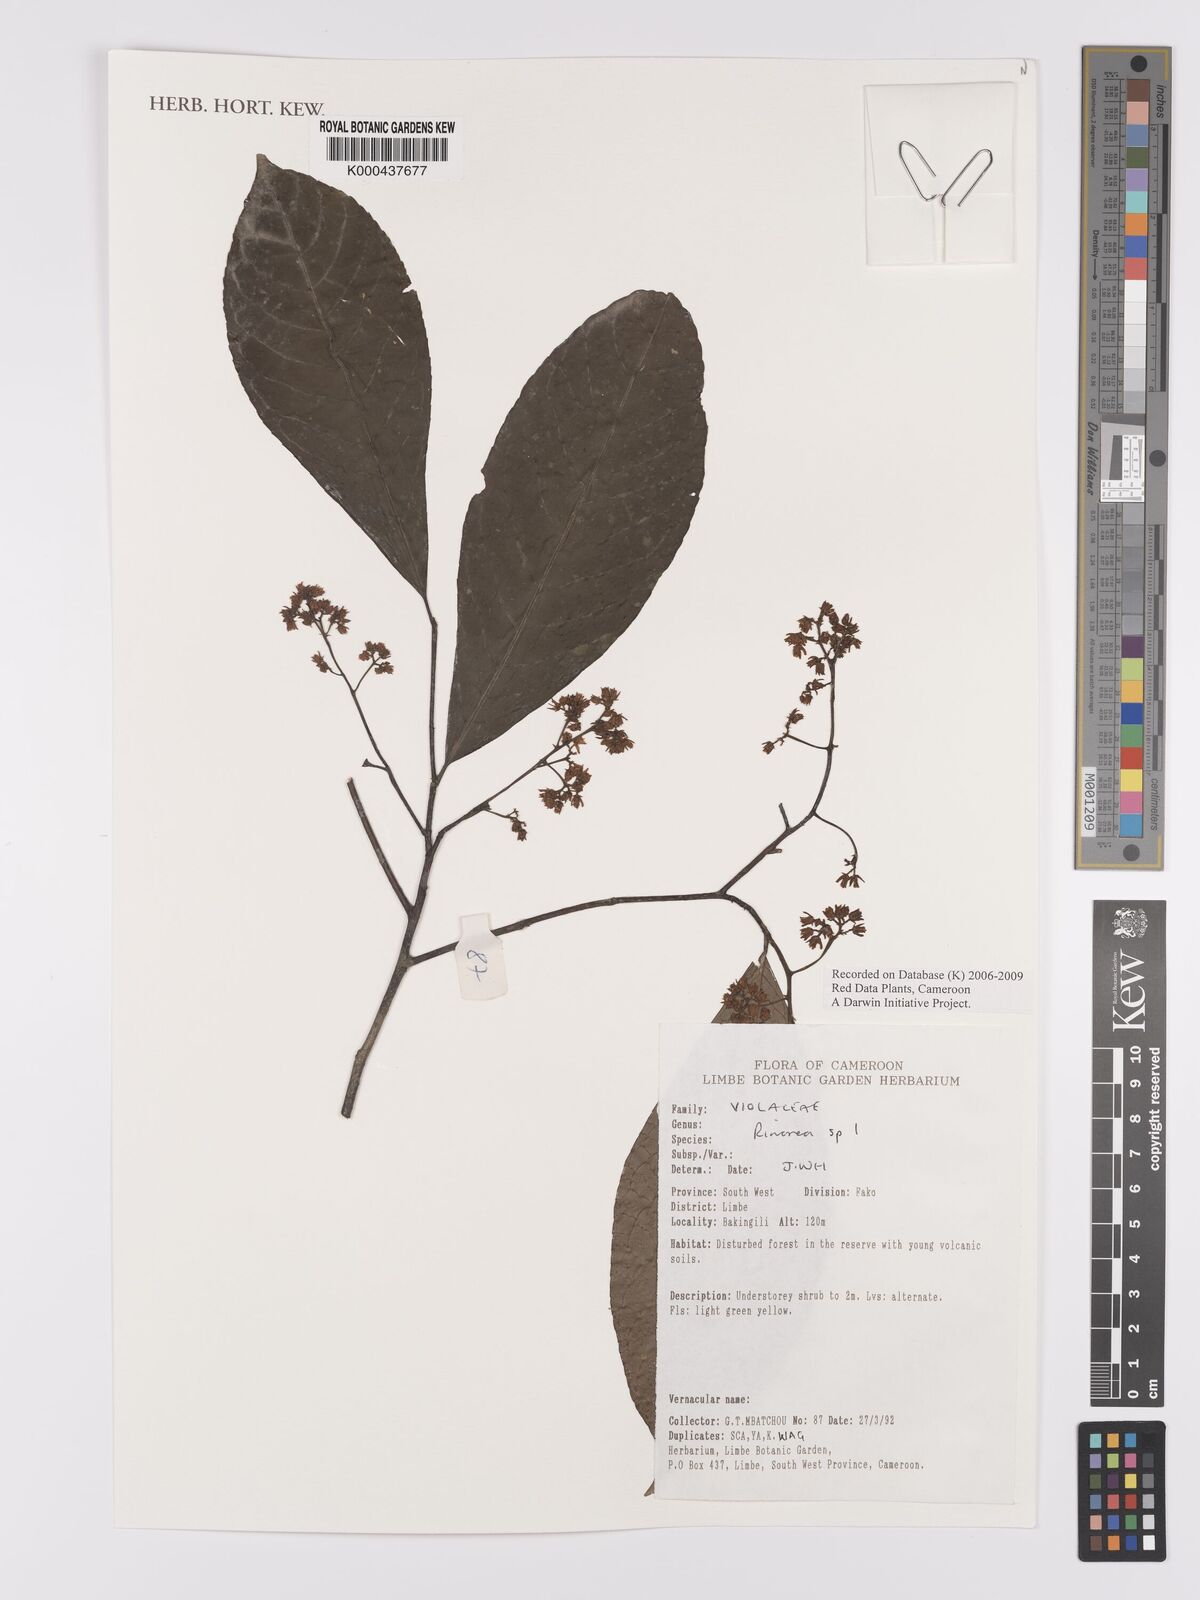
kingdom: Plantae
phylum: Tracheophyta
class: Magnoliopsida
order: Malpighiales
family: Violaceae
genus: Rinorea
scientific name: Rinorea
